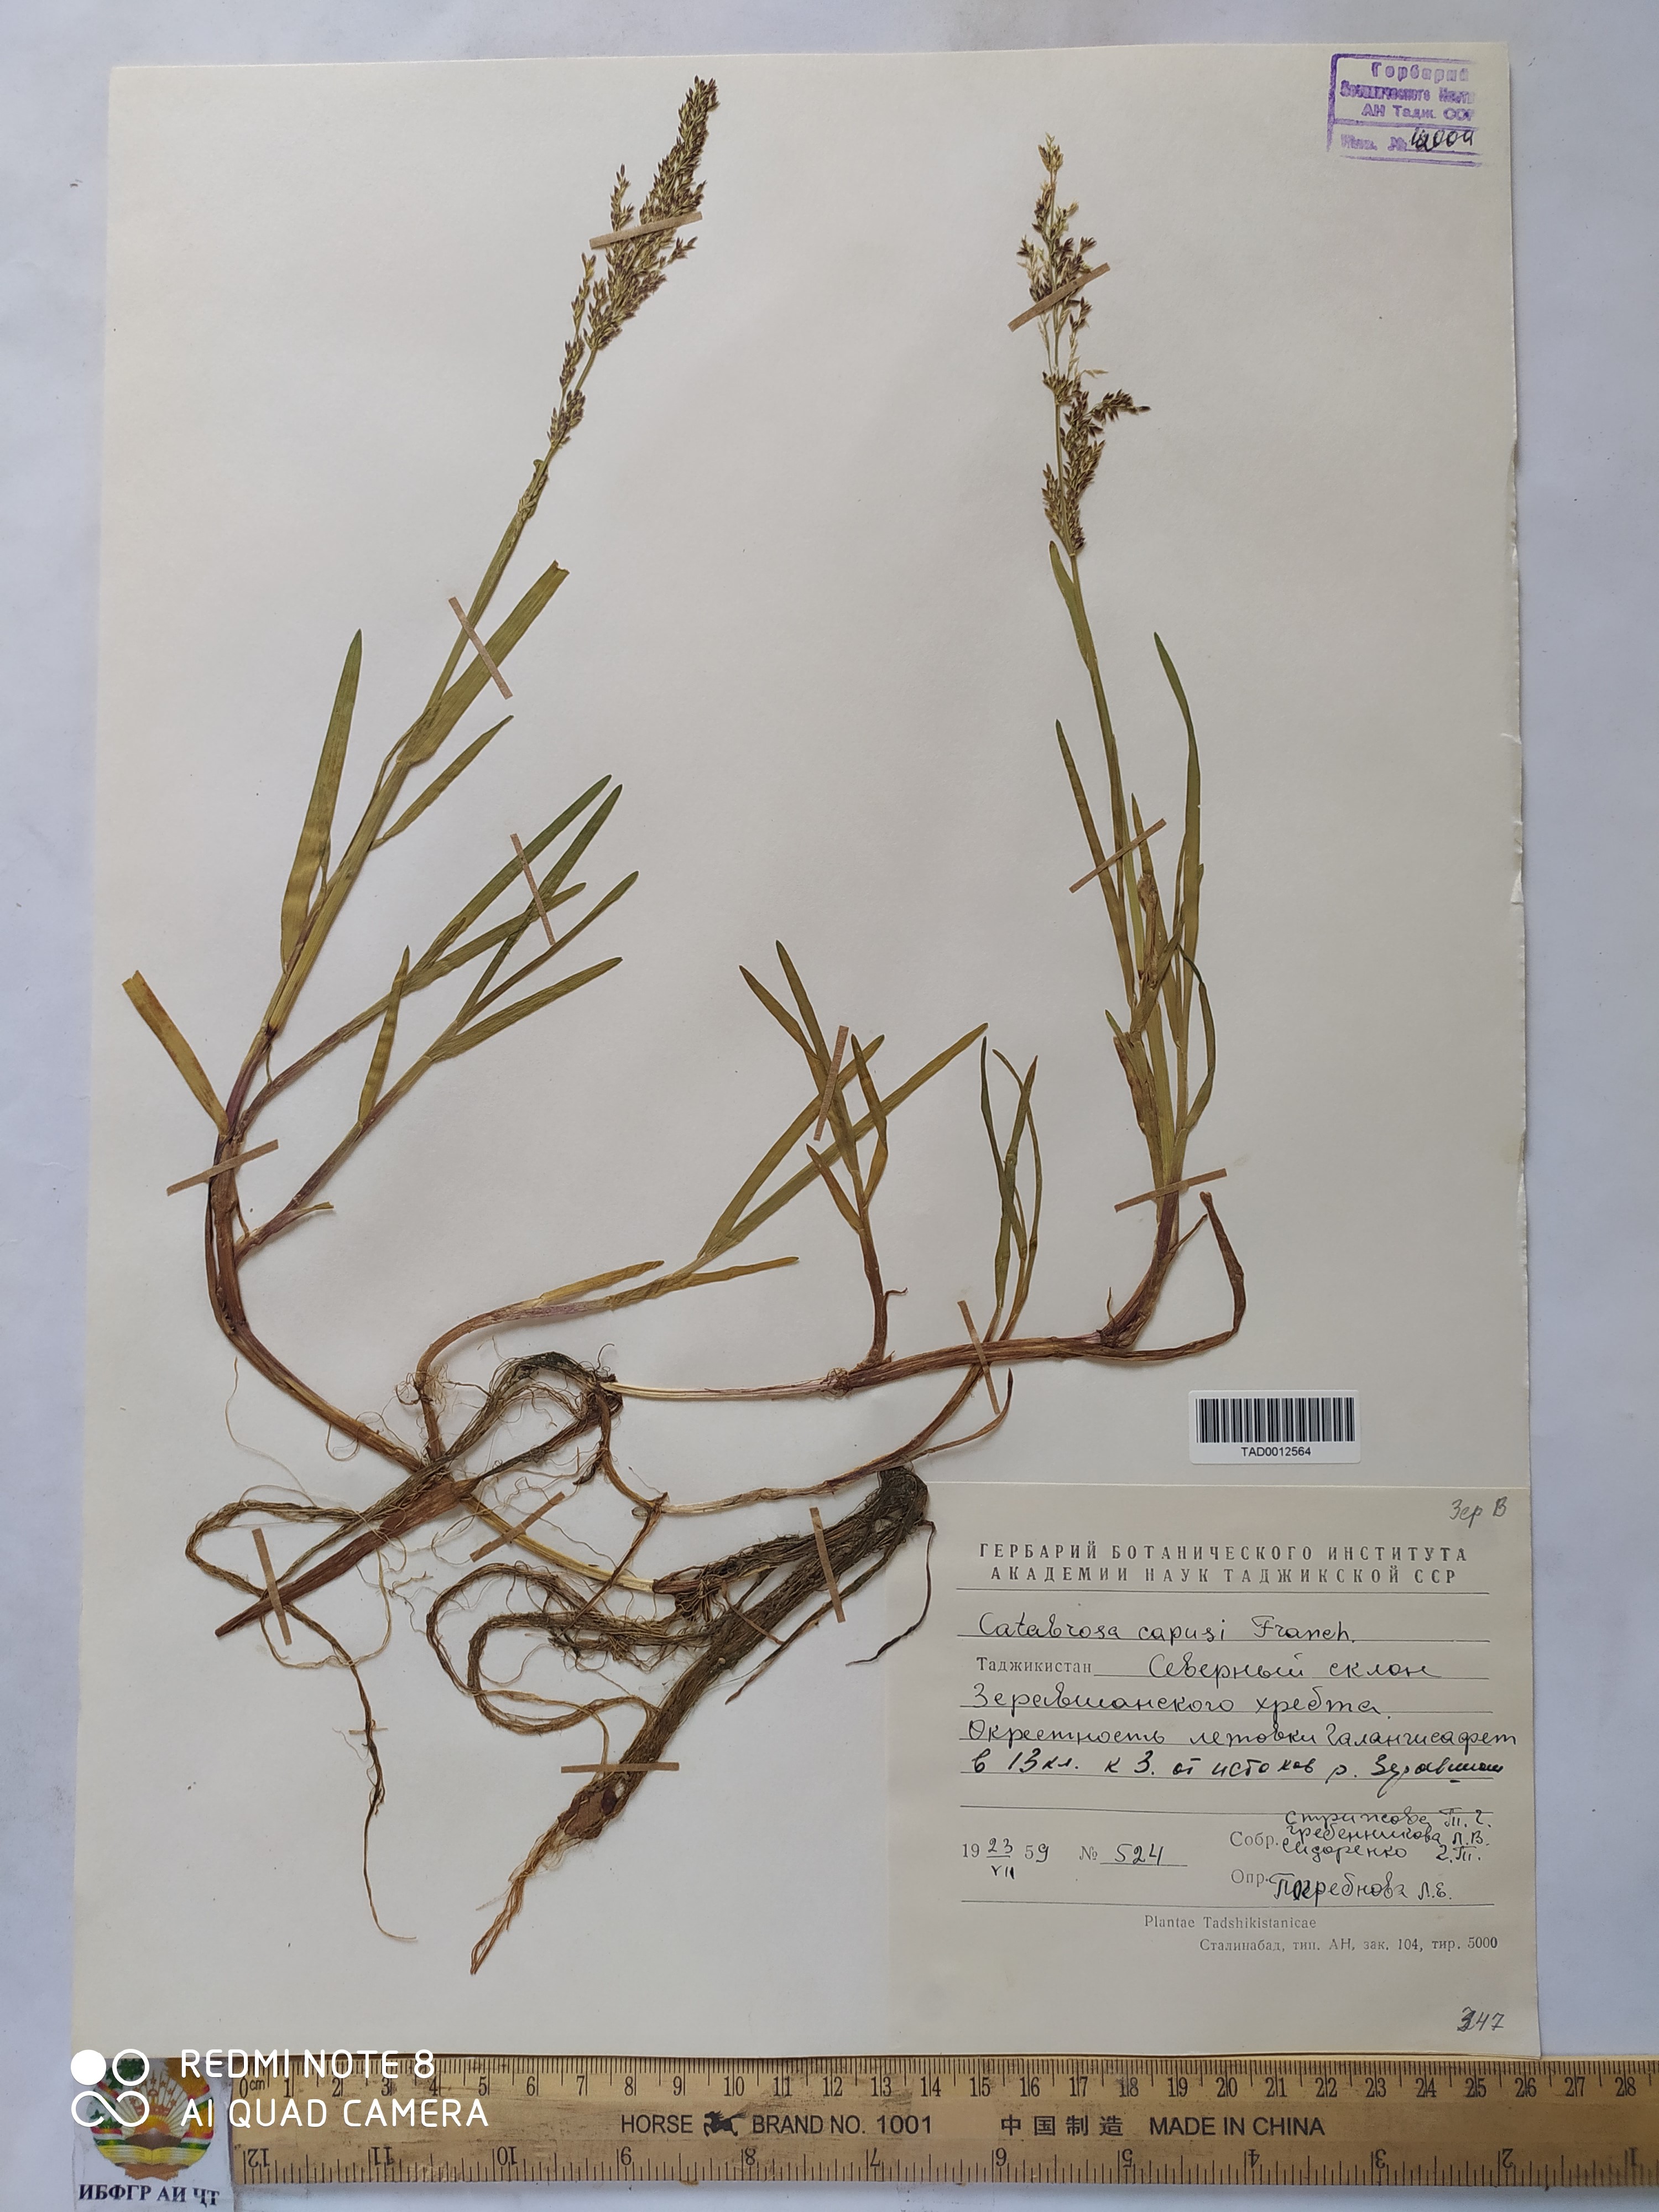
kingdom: Plantae
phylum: Tracheophyta
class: Liliopsida
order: Poales
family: Poaceae
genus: Catabrosa
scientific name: Catabrosa aquatica
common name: Whorl-grass
